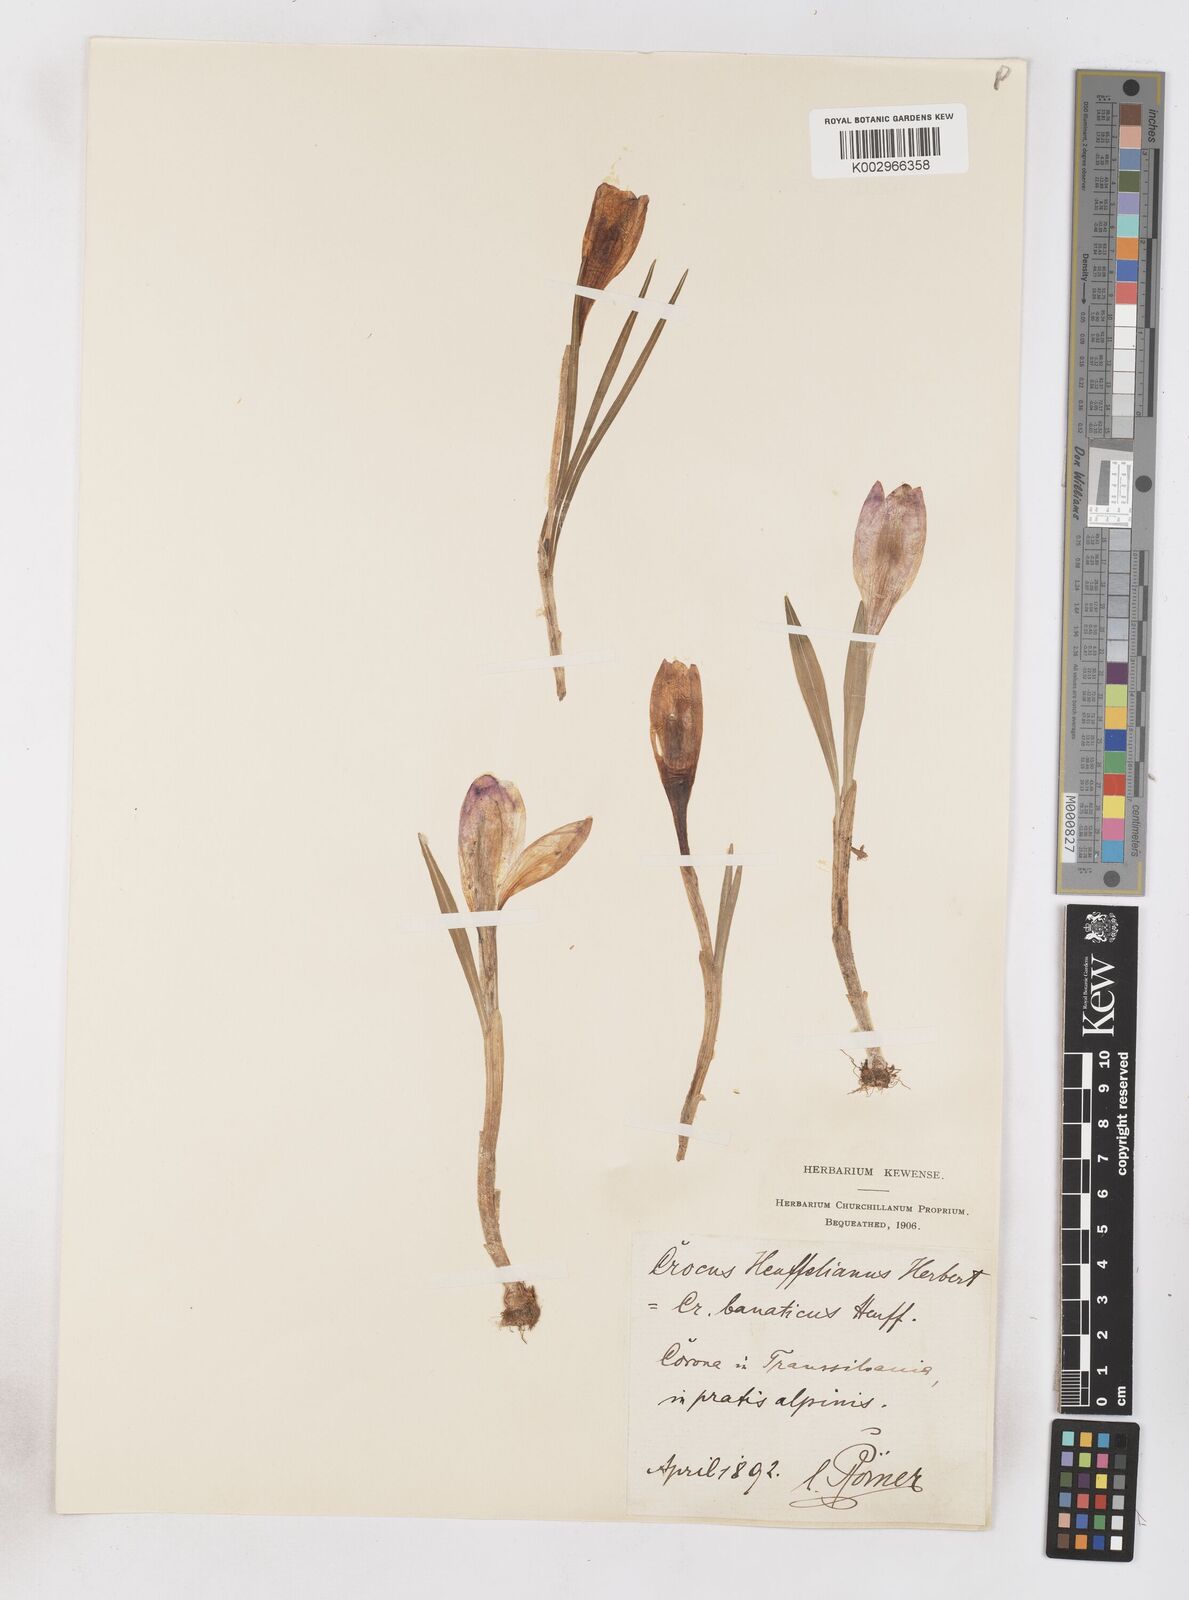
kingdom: Plantae
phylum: Tracheophyta
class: Liliopsida
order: Asparagales
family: Iridaceae
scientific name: Iridaceae
